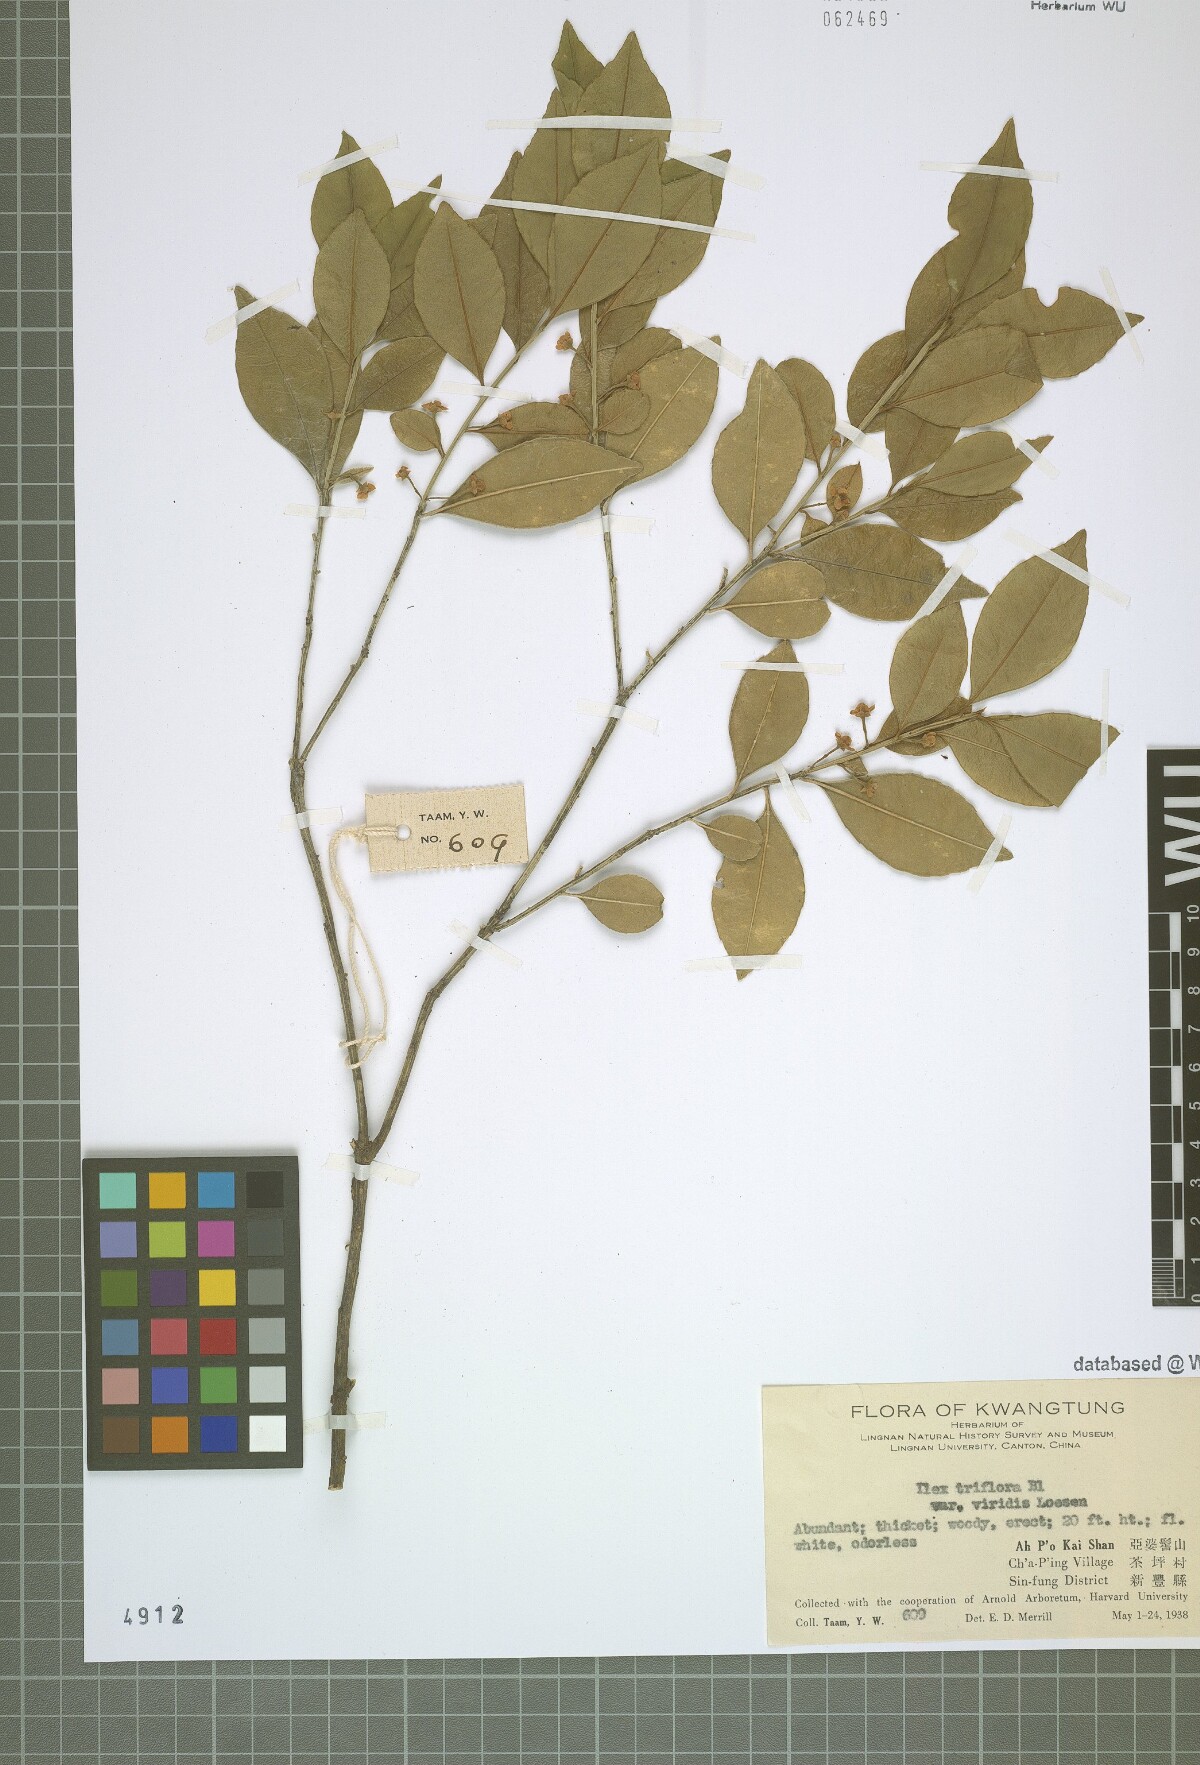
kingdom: Plantae
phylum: Tracheophyta
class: Magnoliopsida
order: Aquifoliales
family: Aquifoliaceae
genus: Ilex
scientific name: Ilex viridis
